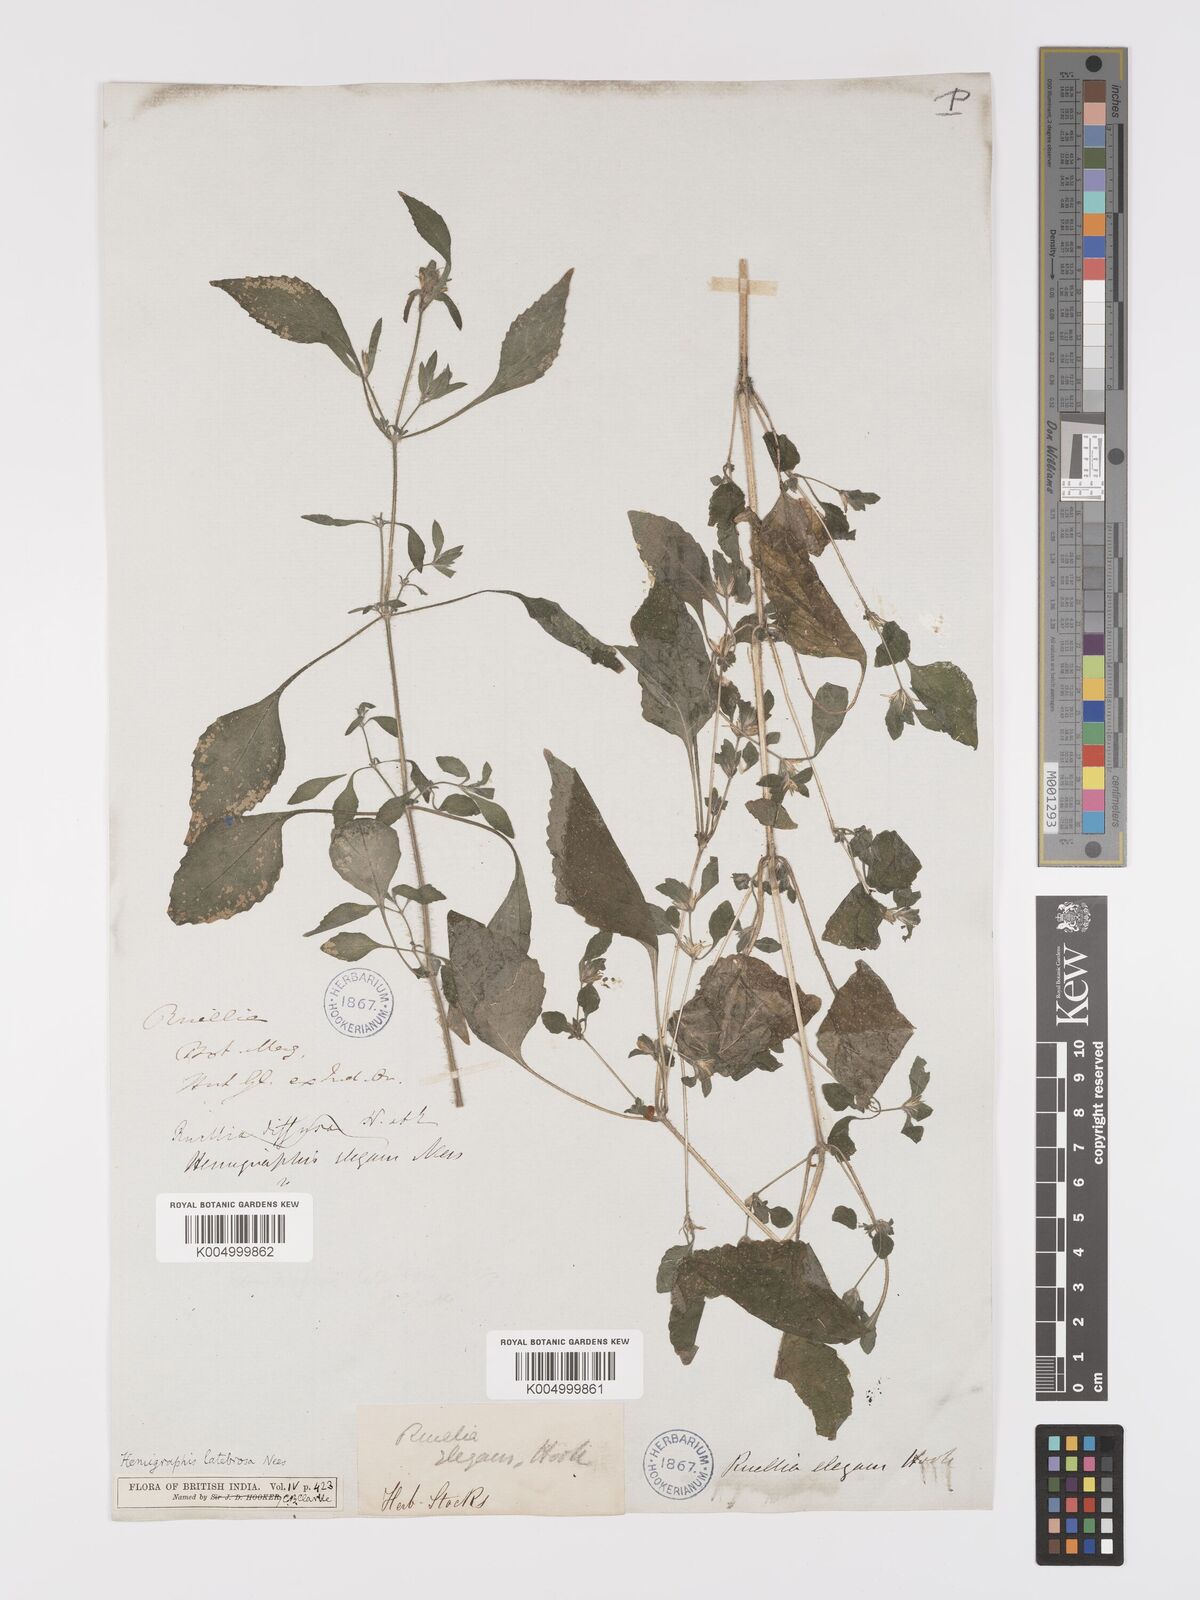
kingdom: Plantae
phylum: Tracheophyta
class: Magnoliopsida
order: Lamiales
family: Acanthaceae
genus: Strobilanthes
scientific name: Strobilanthes pavala
